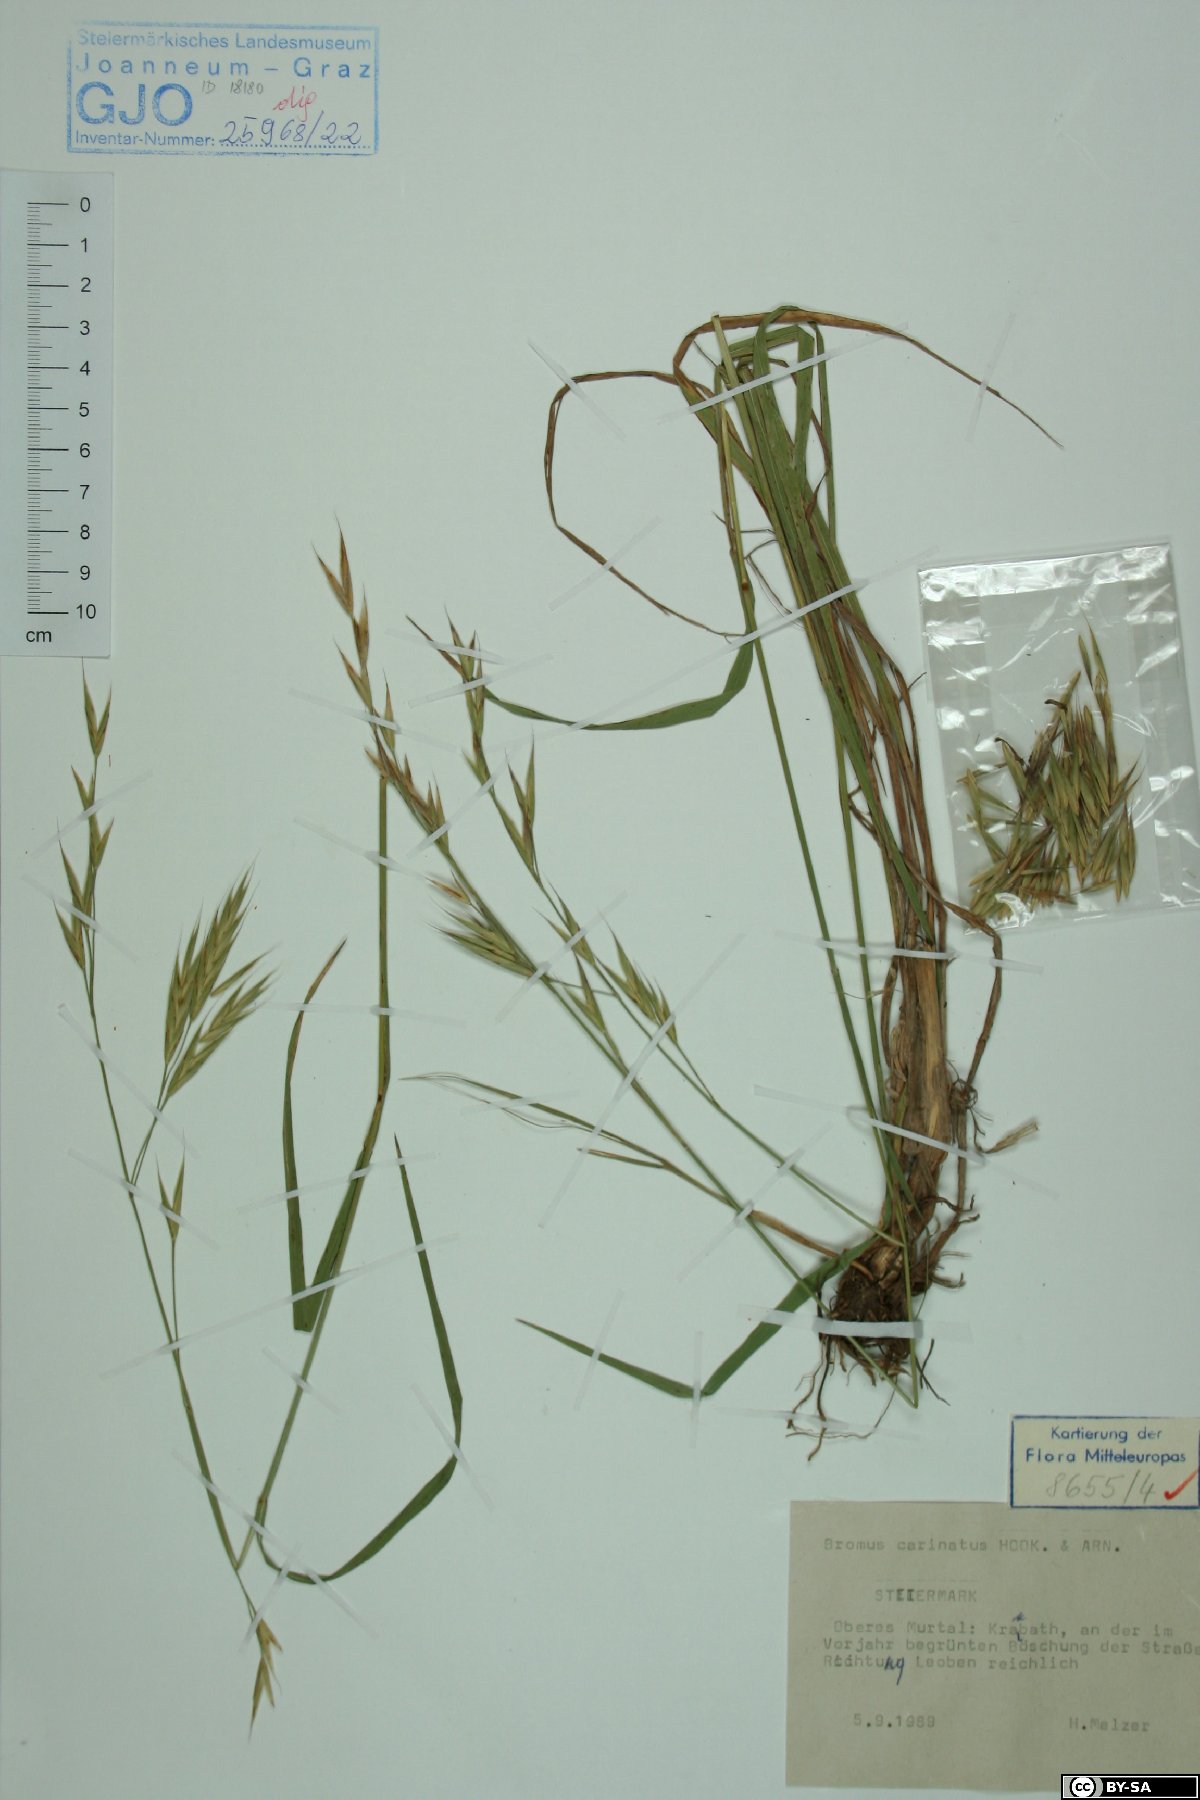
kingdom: Plantae
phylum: Tracheophyta
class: Liliopsida
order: Poales
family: Poaceae
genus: Bromus
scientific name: Bromus carinatus
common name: Mountain brome
